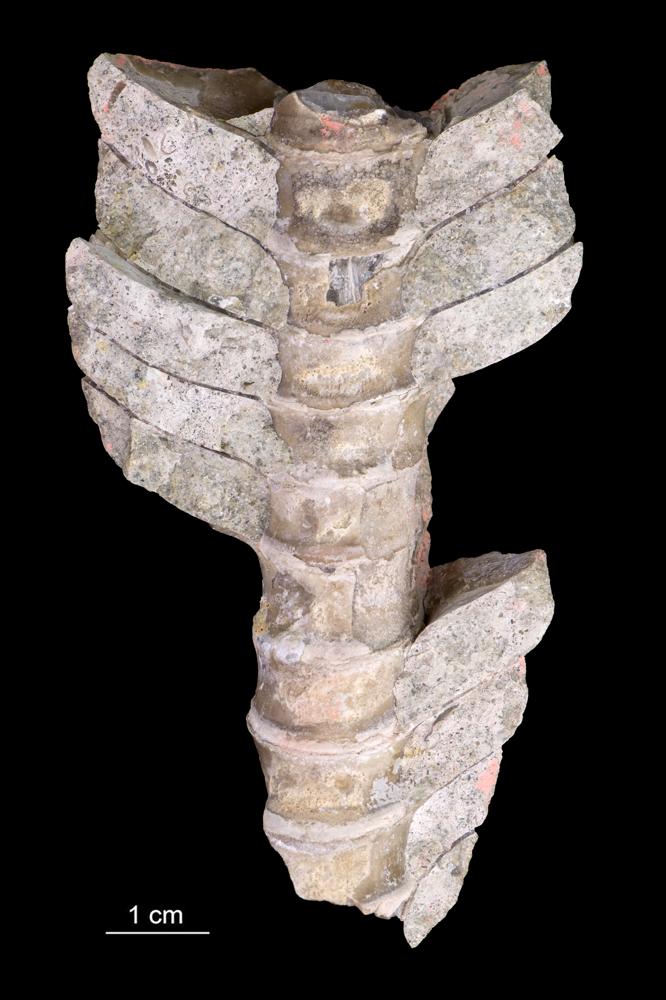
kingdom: Animalia
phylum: Mollusca
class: Cephalopoda
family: Endoceratidae
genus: Endoceras
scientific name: Endoceras
